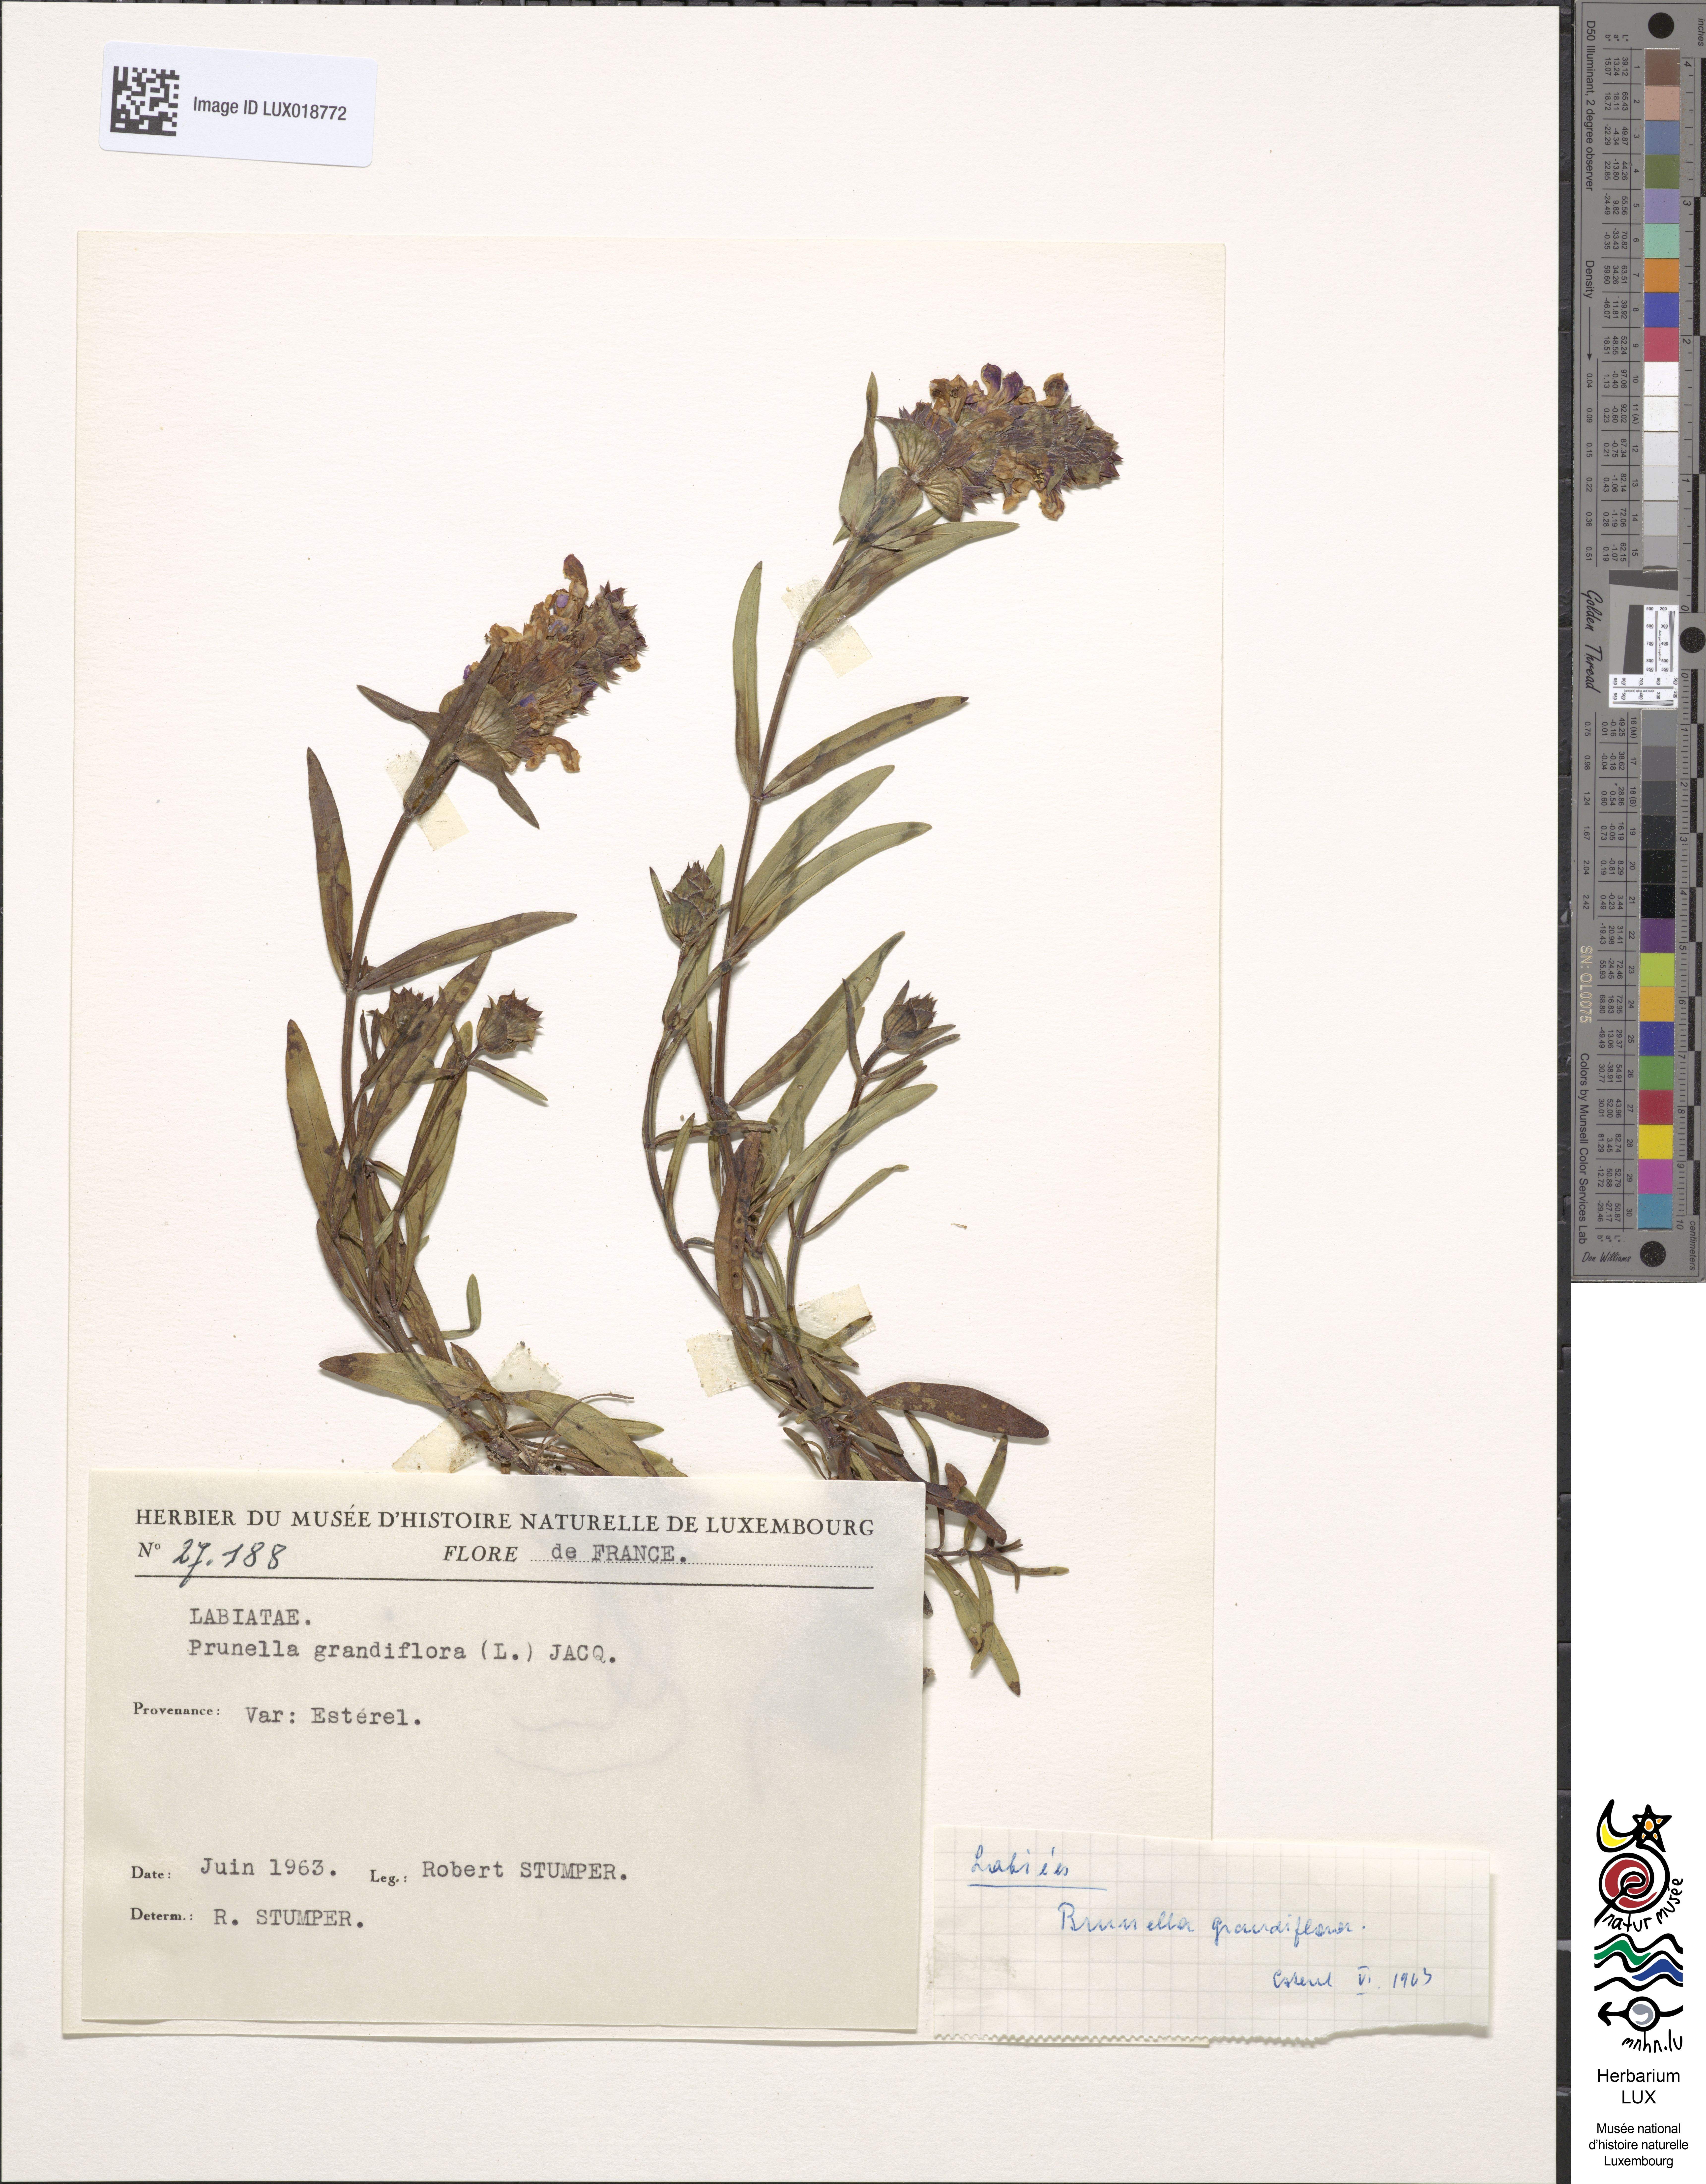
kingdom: Plantae
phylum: Tracheophyta
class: Magnoliopsida
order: Lamiales
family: Lamiaceae
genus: Prunella
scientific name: Prunella grandiflora
